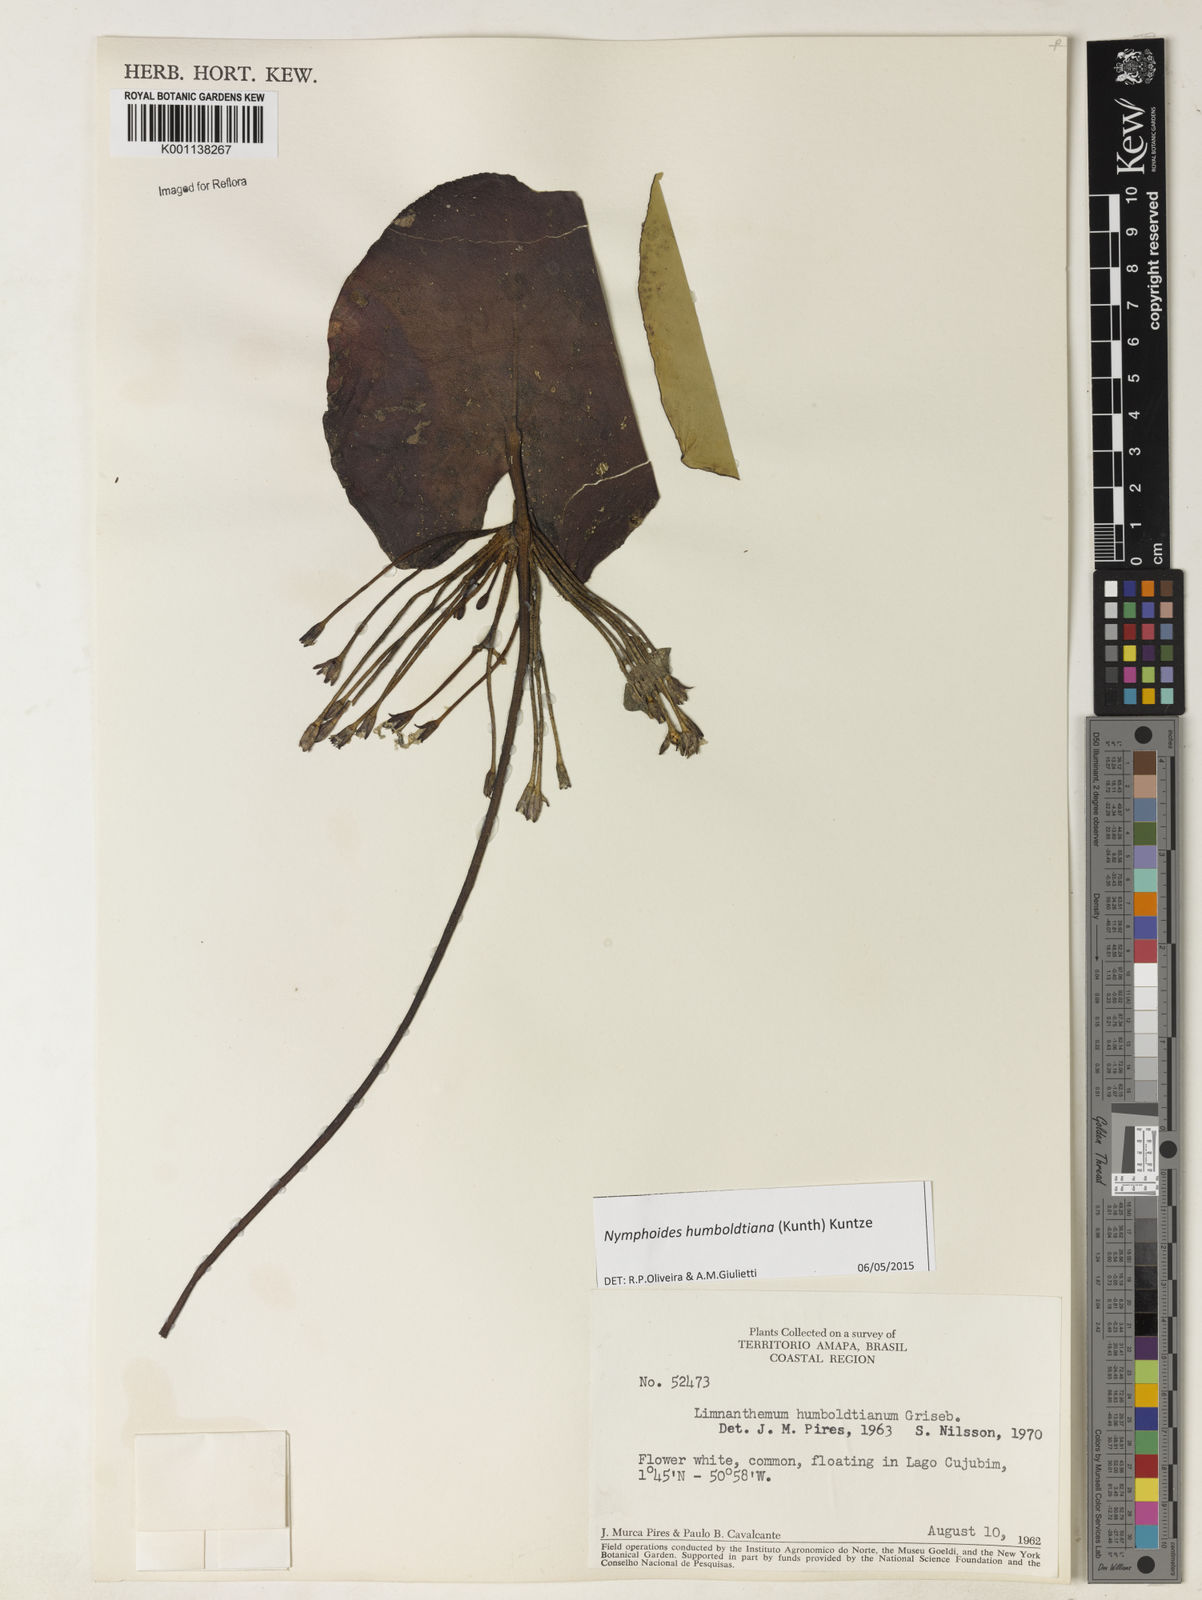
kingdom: Plantae
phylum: Tracheophyta
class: Magnoliopsida
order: Asterales
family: Menyanthaceae
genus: Nymphoides
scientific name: Nymphoides humboldtiana
